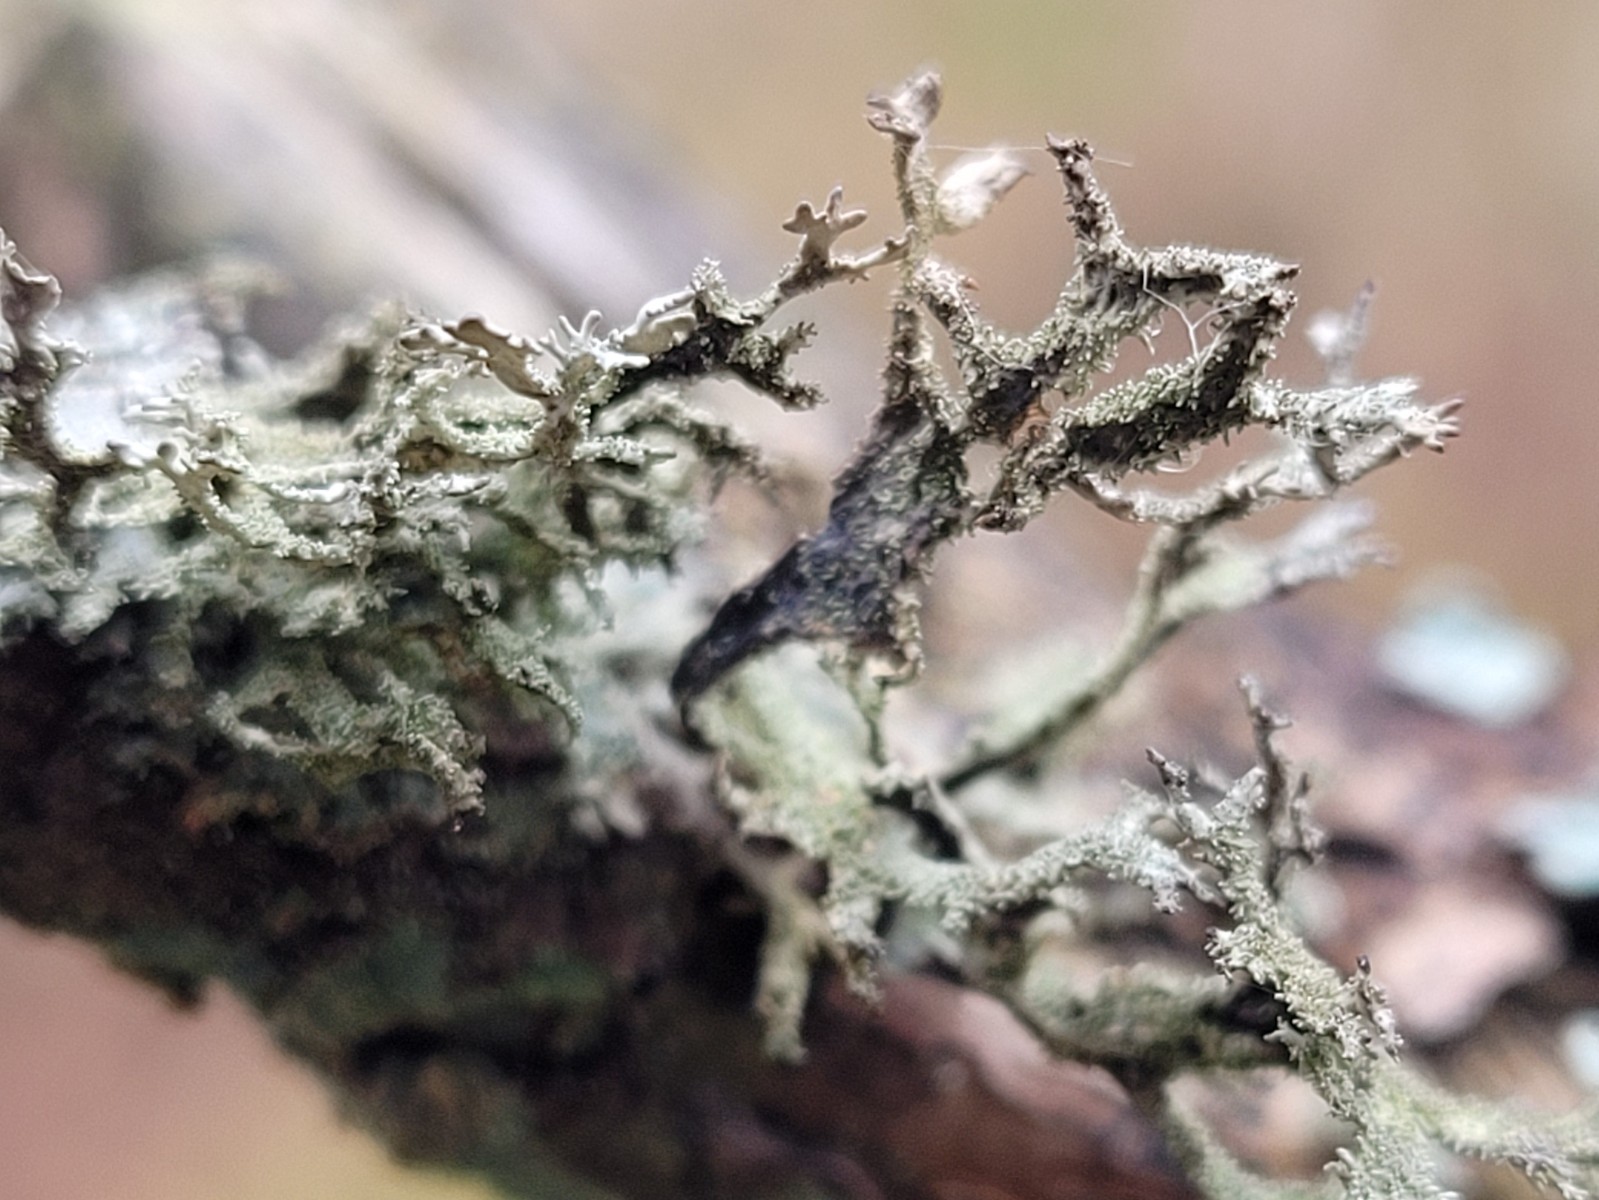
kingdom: Fungi
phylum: Ascomycota
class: Lecanoromycetes
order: Lecanorales
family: Parmeliaceae
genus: Pseudevernia
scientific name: Pseudevernia furfuracea
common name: grå fyrrelav
